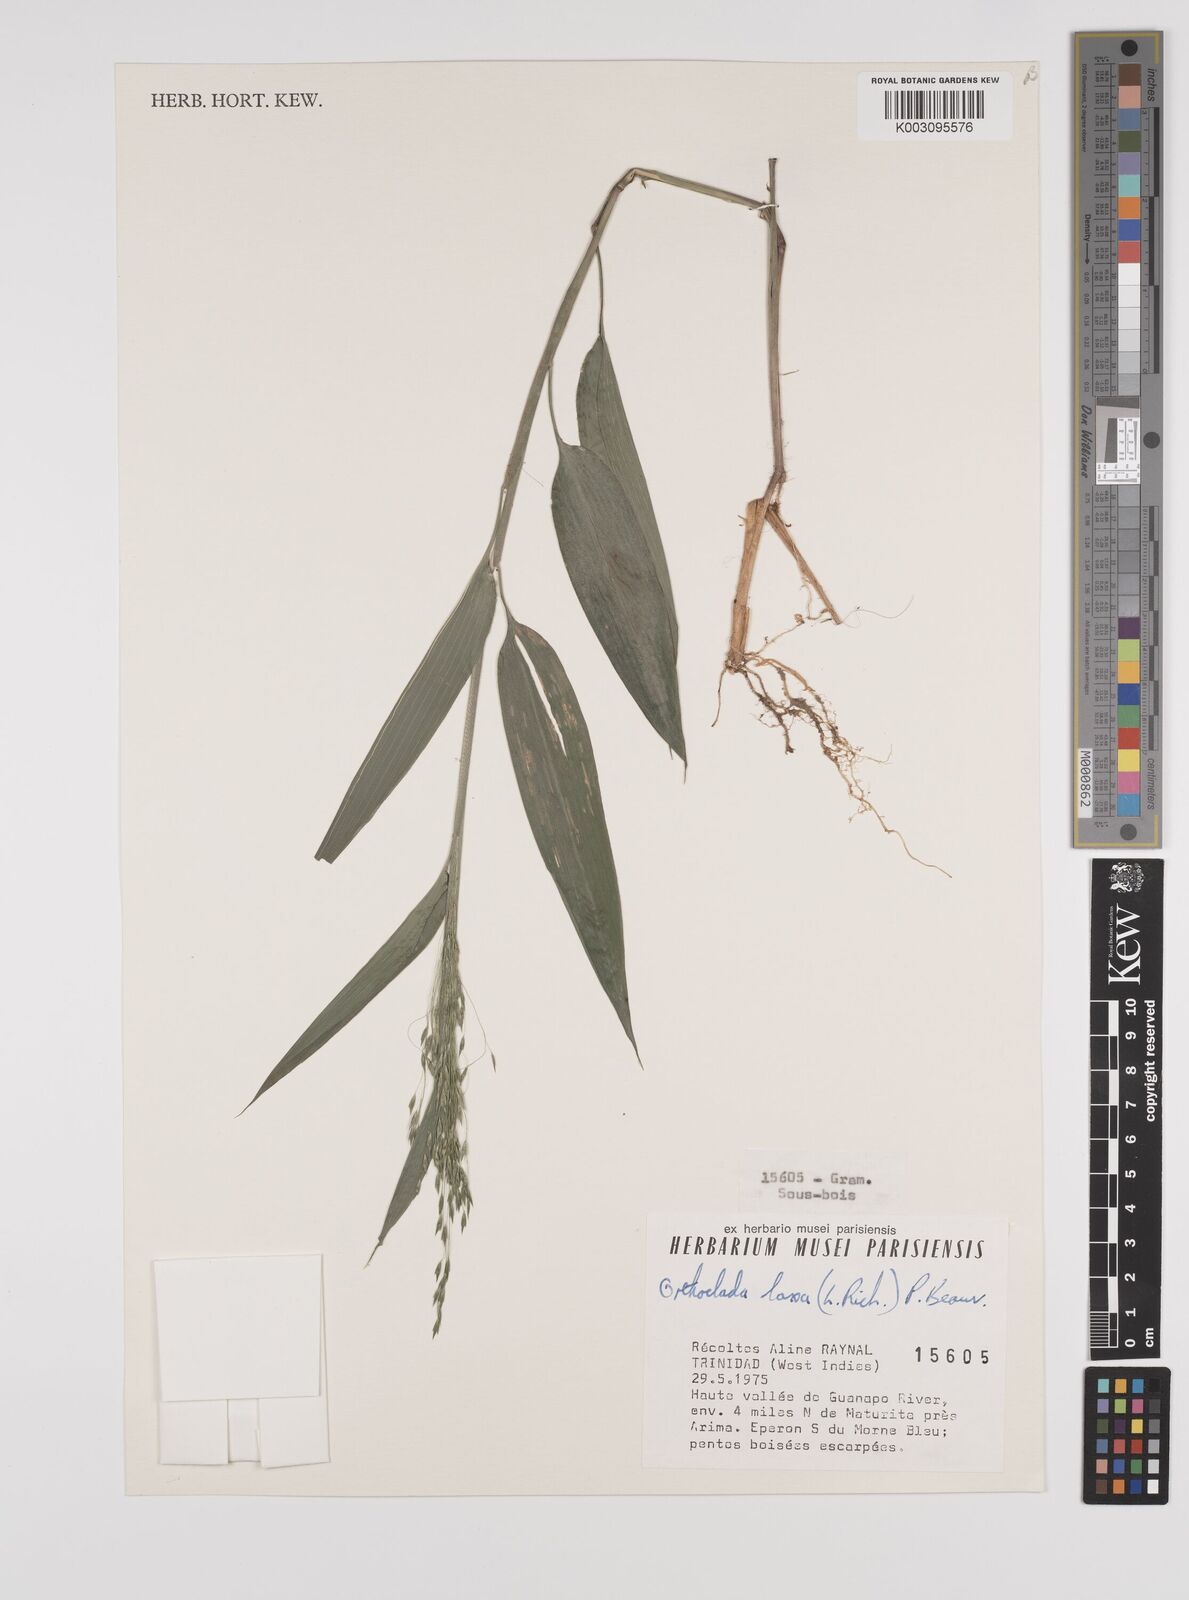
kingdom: Plantae
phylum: Tracheophyta
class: Liliopsida
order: Poales
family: Poaceae
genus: Orthoclada
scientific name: Orthoclada laxa
